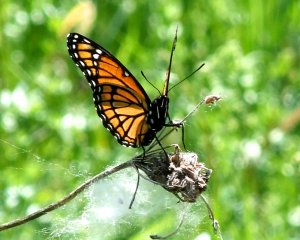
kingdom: Animalia
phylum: Arthropoda
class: Insecta
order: Lepidoptera
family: Nymphalidae
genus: Limenitis
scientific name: Limenitis archippus
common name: Viceroy
